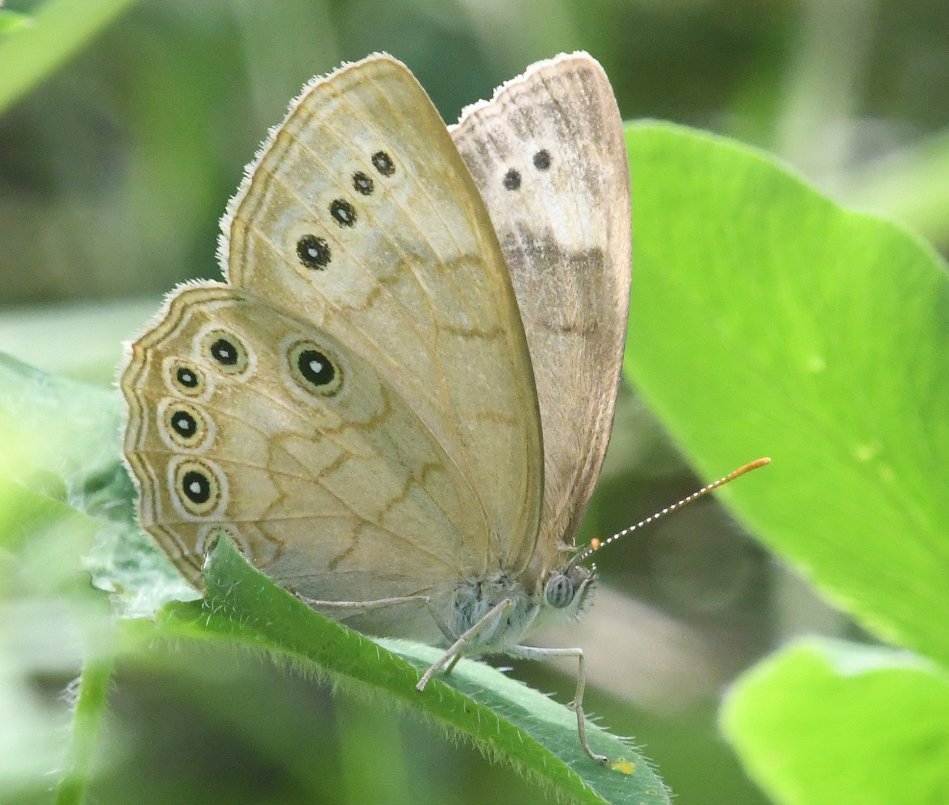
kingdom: Animalia
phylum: Arthropoda
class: Insecta
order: Lepidoptera
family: Nymphalidae
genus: Lethe
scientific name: Lethe eurydice
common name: Eyed Brown
